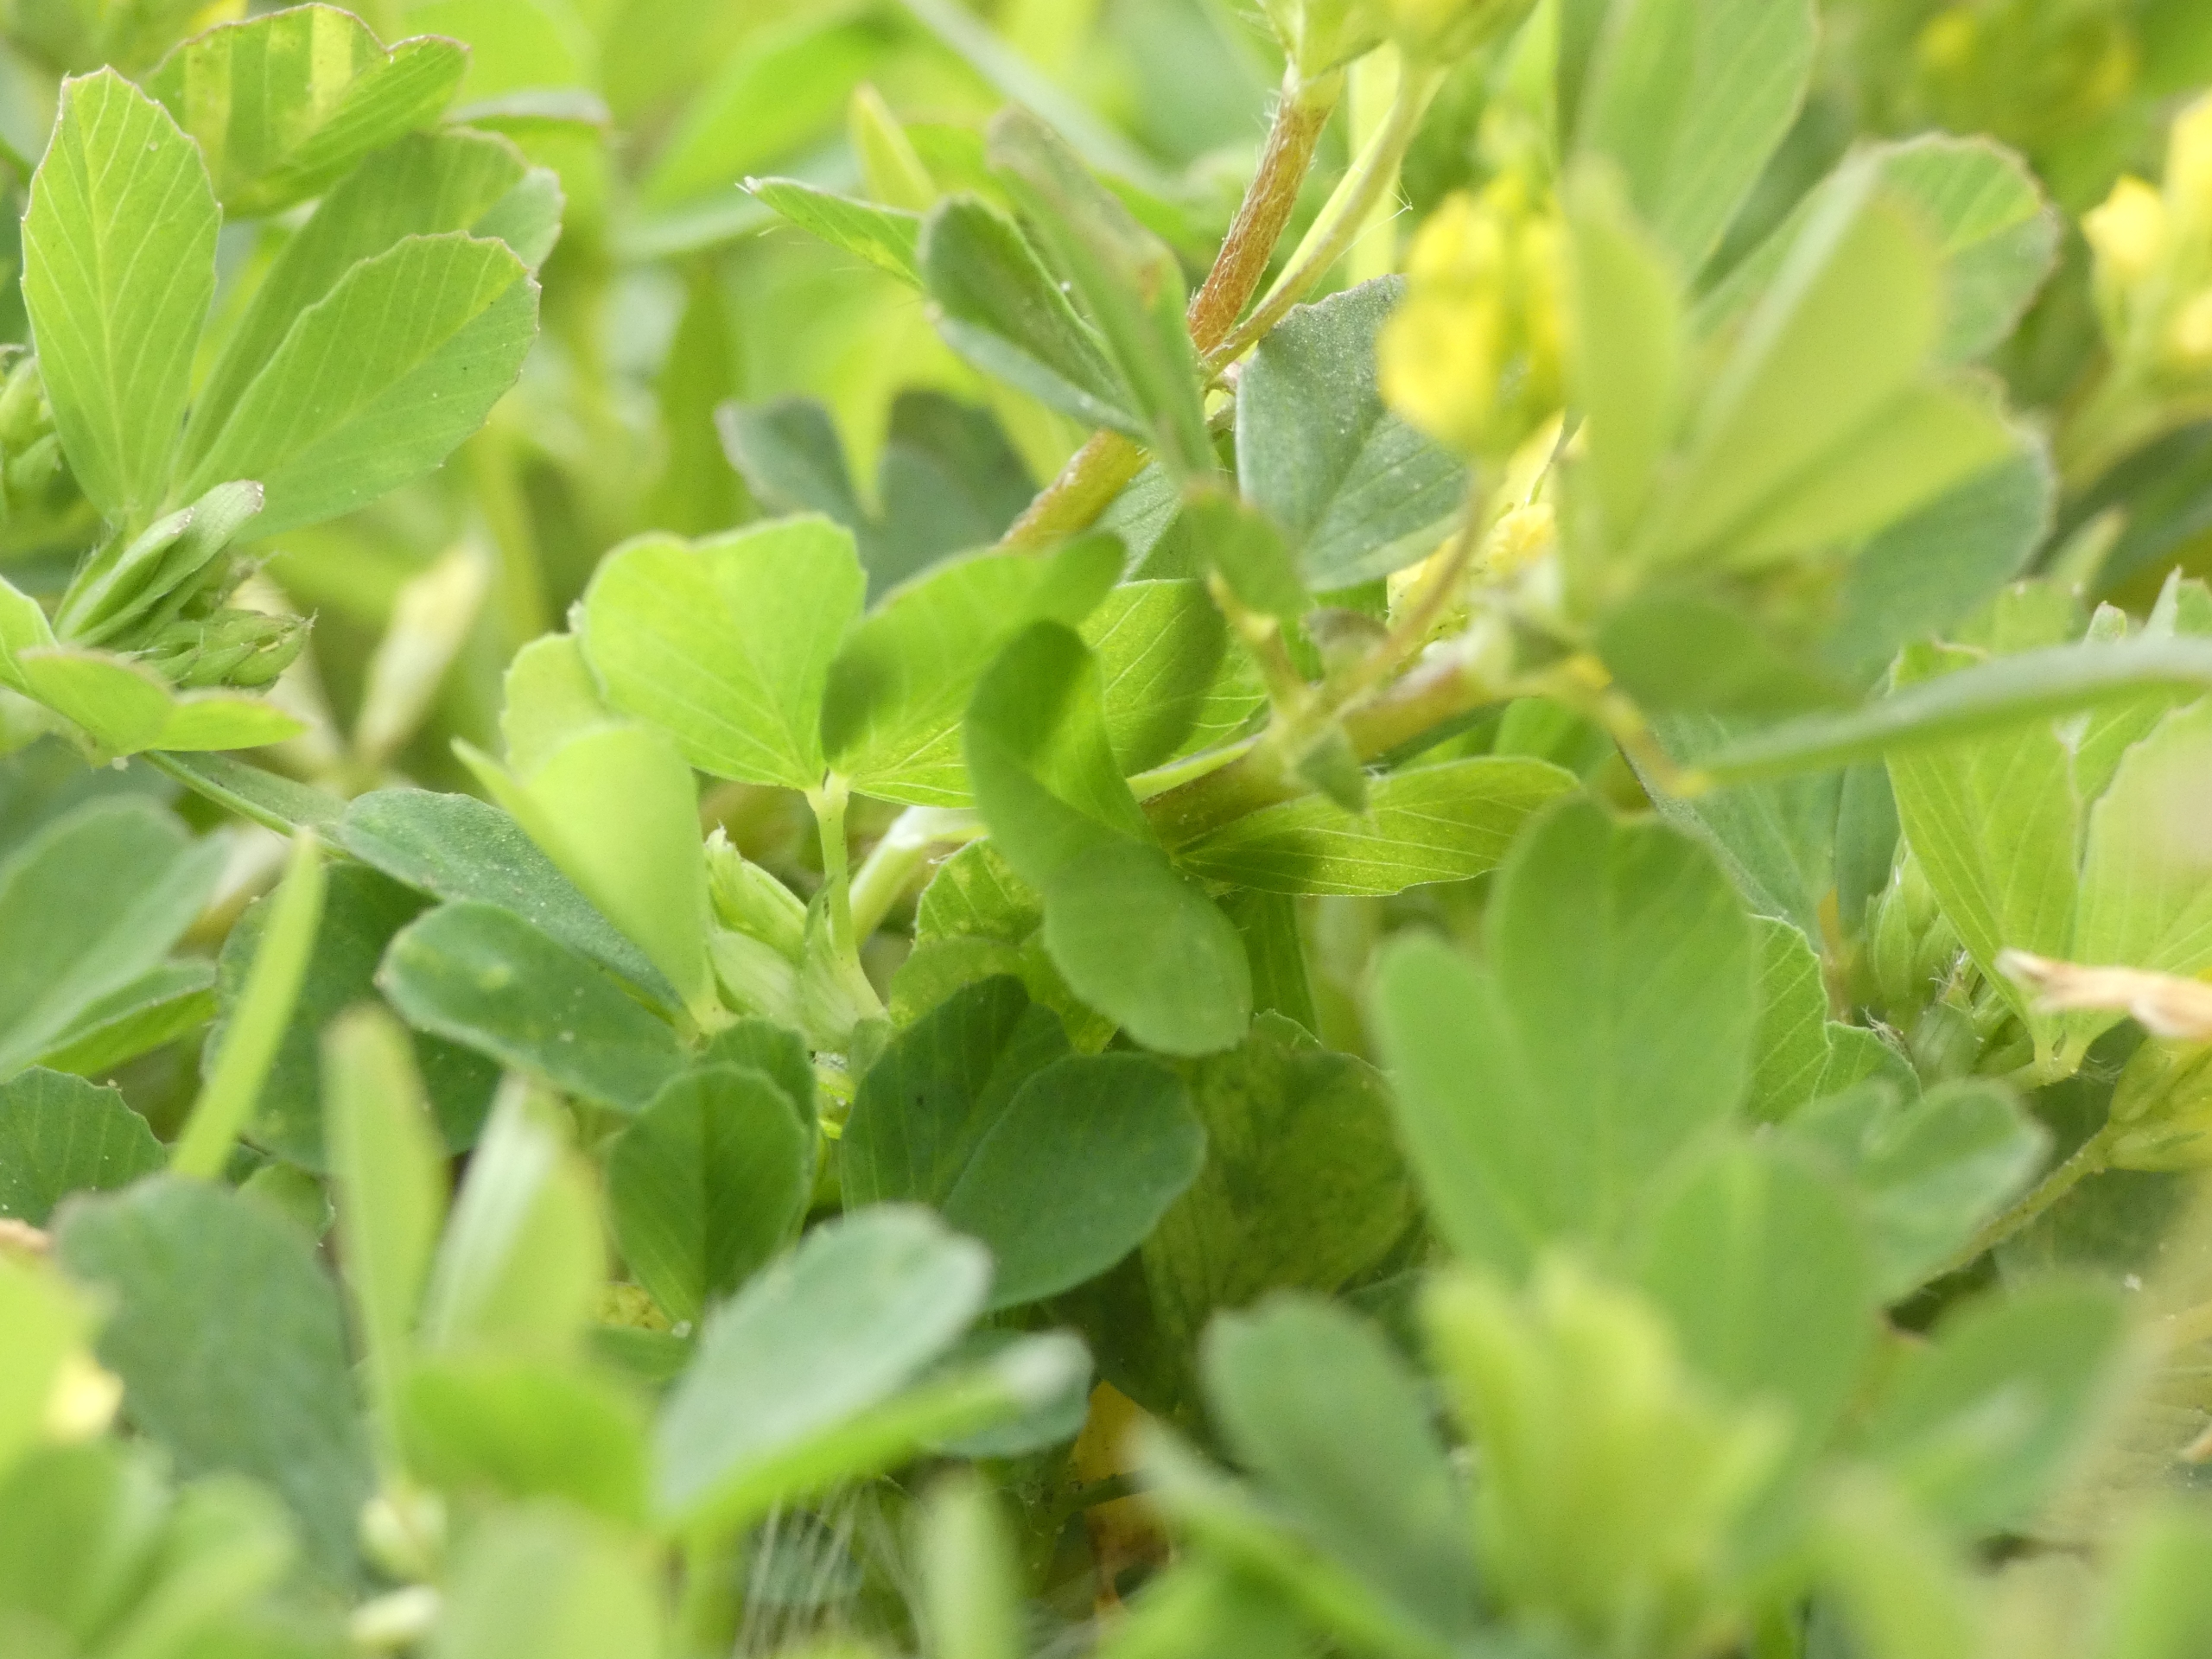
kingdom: Plantae
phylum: Tracheophyta
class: Magnoliopsida
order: Fabales
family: Fabaceae
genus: Trifolium
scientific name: Trifolium dubium
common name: Fin kløver
